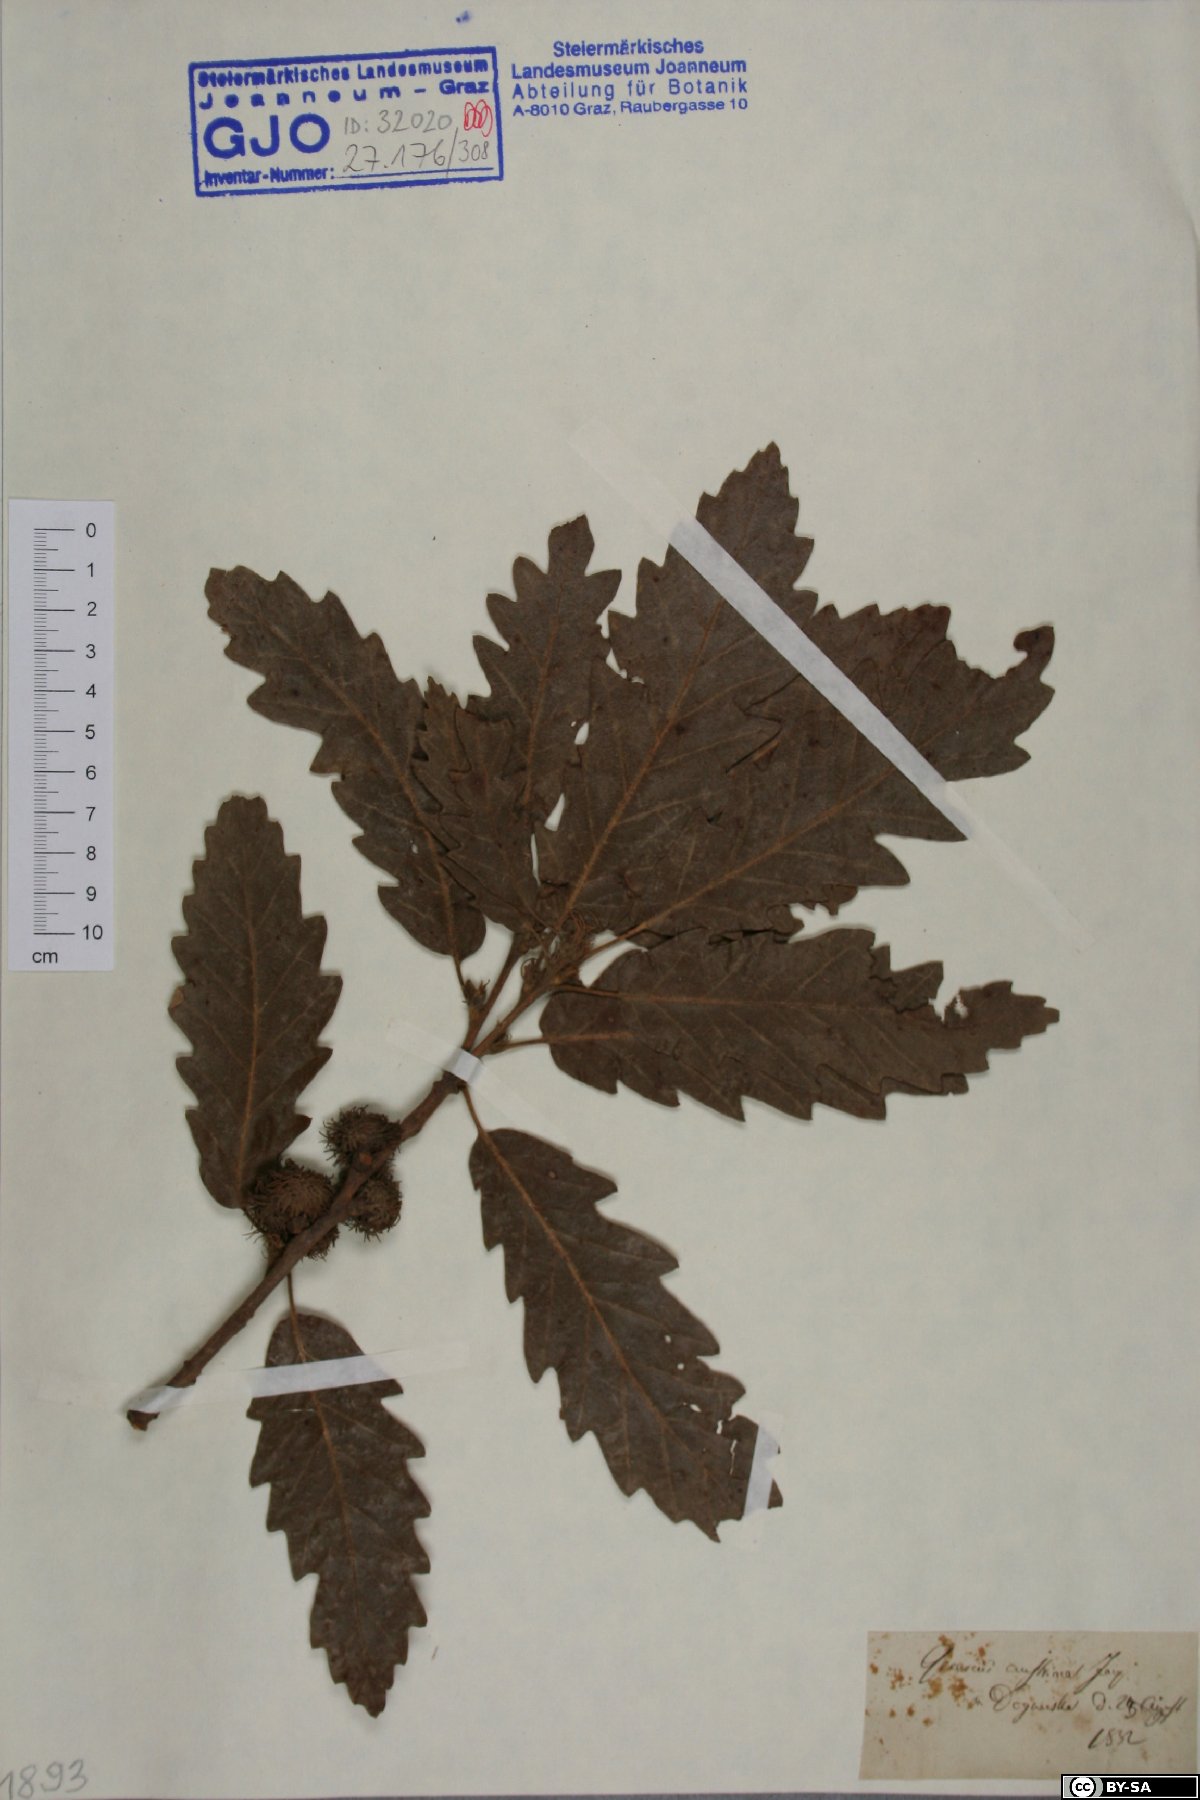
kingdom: Plantae
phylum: Tracheophyta
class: Magnoliopsida
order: Fagales
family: Fagaceae
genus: Quercus
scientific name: Quercus cerris
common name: Turkey oak
